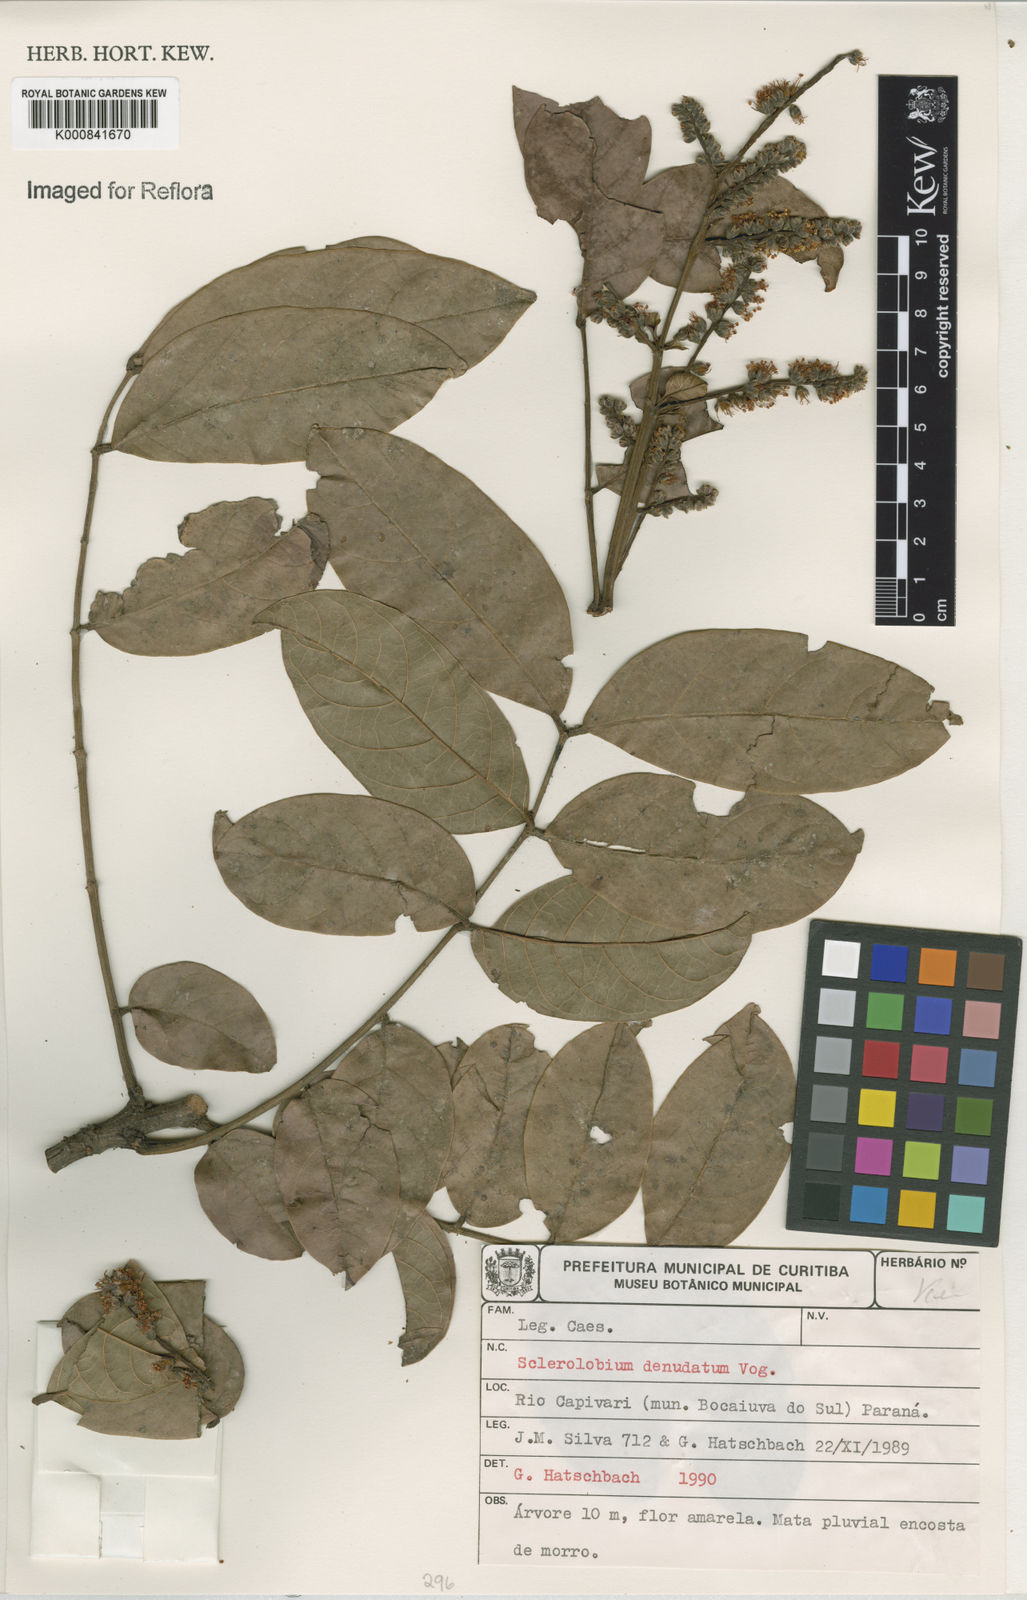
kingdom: Plantae
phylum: Tracheophyta
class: Magnoliopsida
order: Fabales
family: Fabaceae
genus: Tachigali
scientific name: Tachigali denudata
